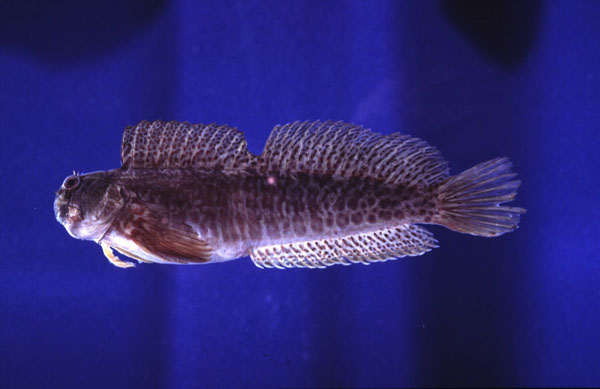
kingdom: Animalia
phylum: Chordata
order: Perciformes
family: Blenniidae
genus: Istiblennius
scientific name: Istiblennius edentulus
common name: Rippled rockskipper
